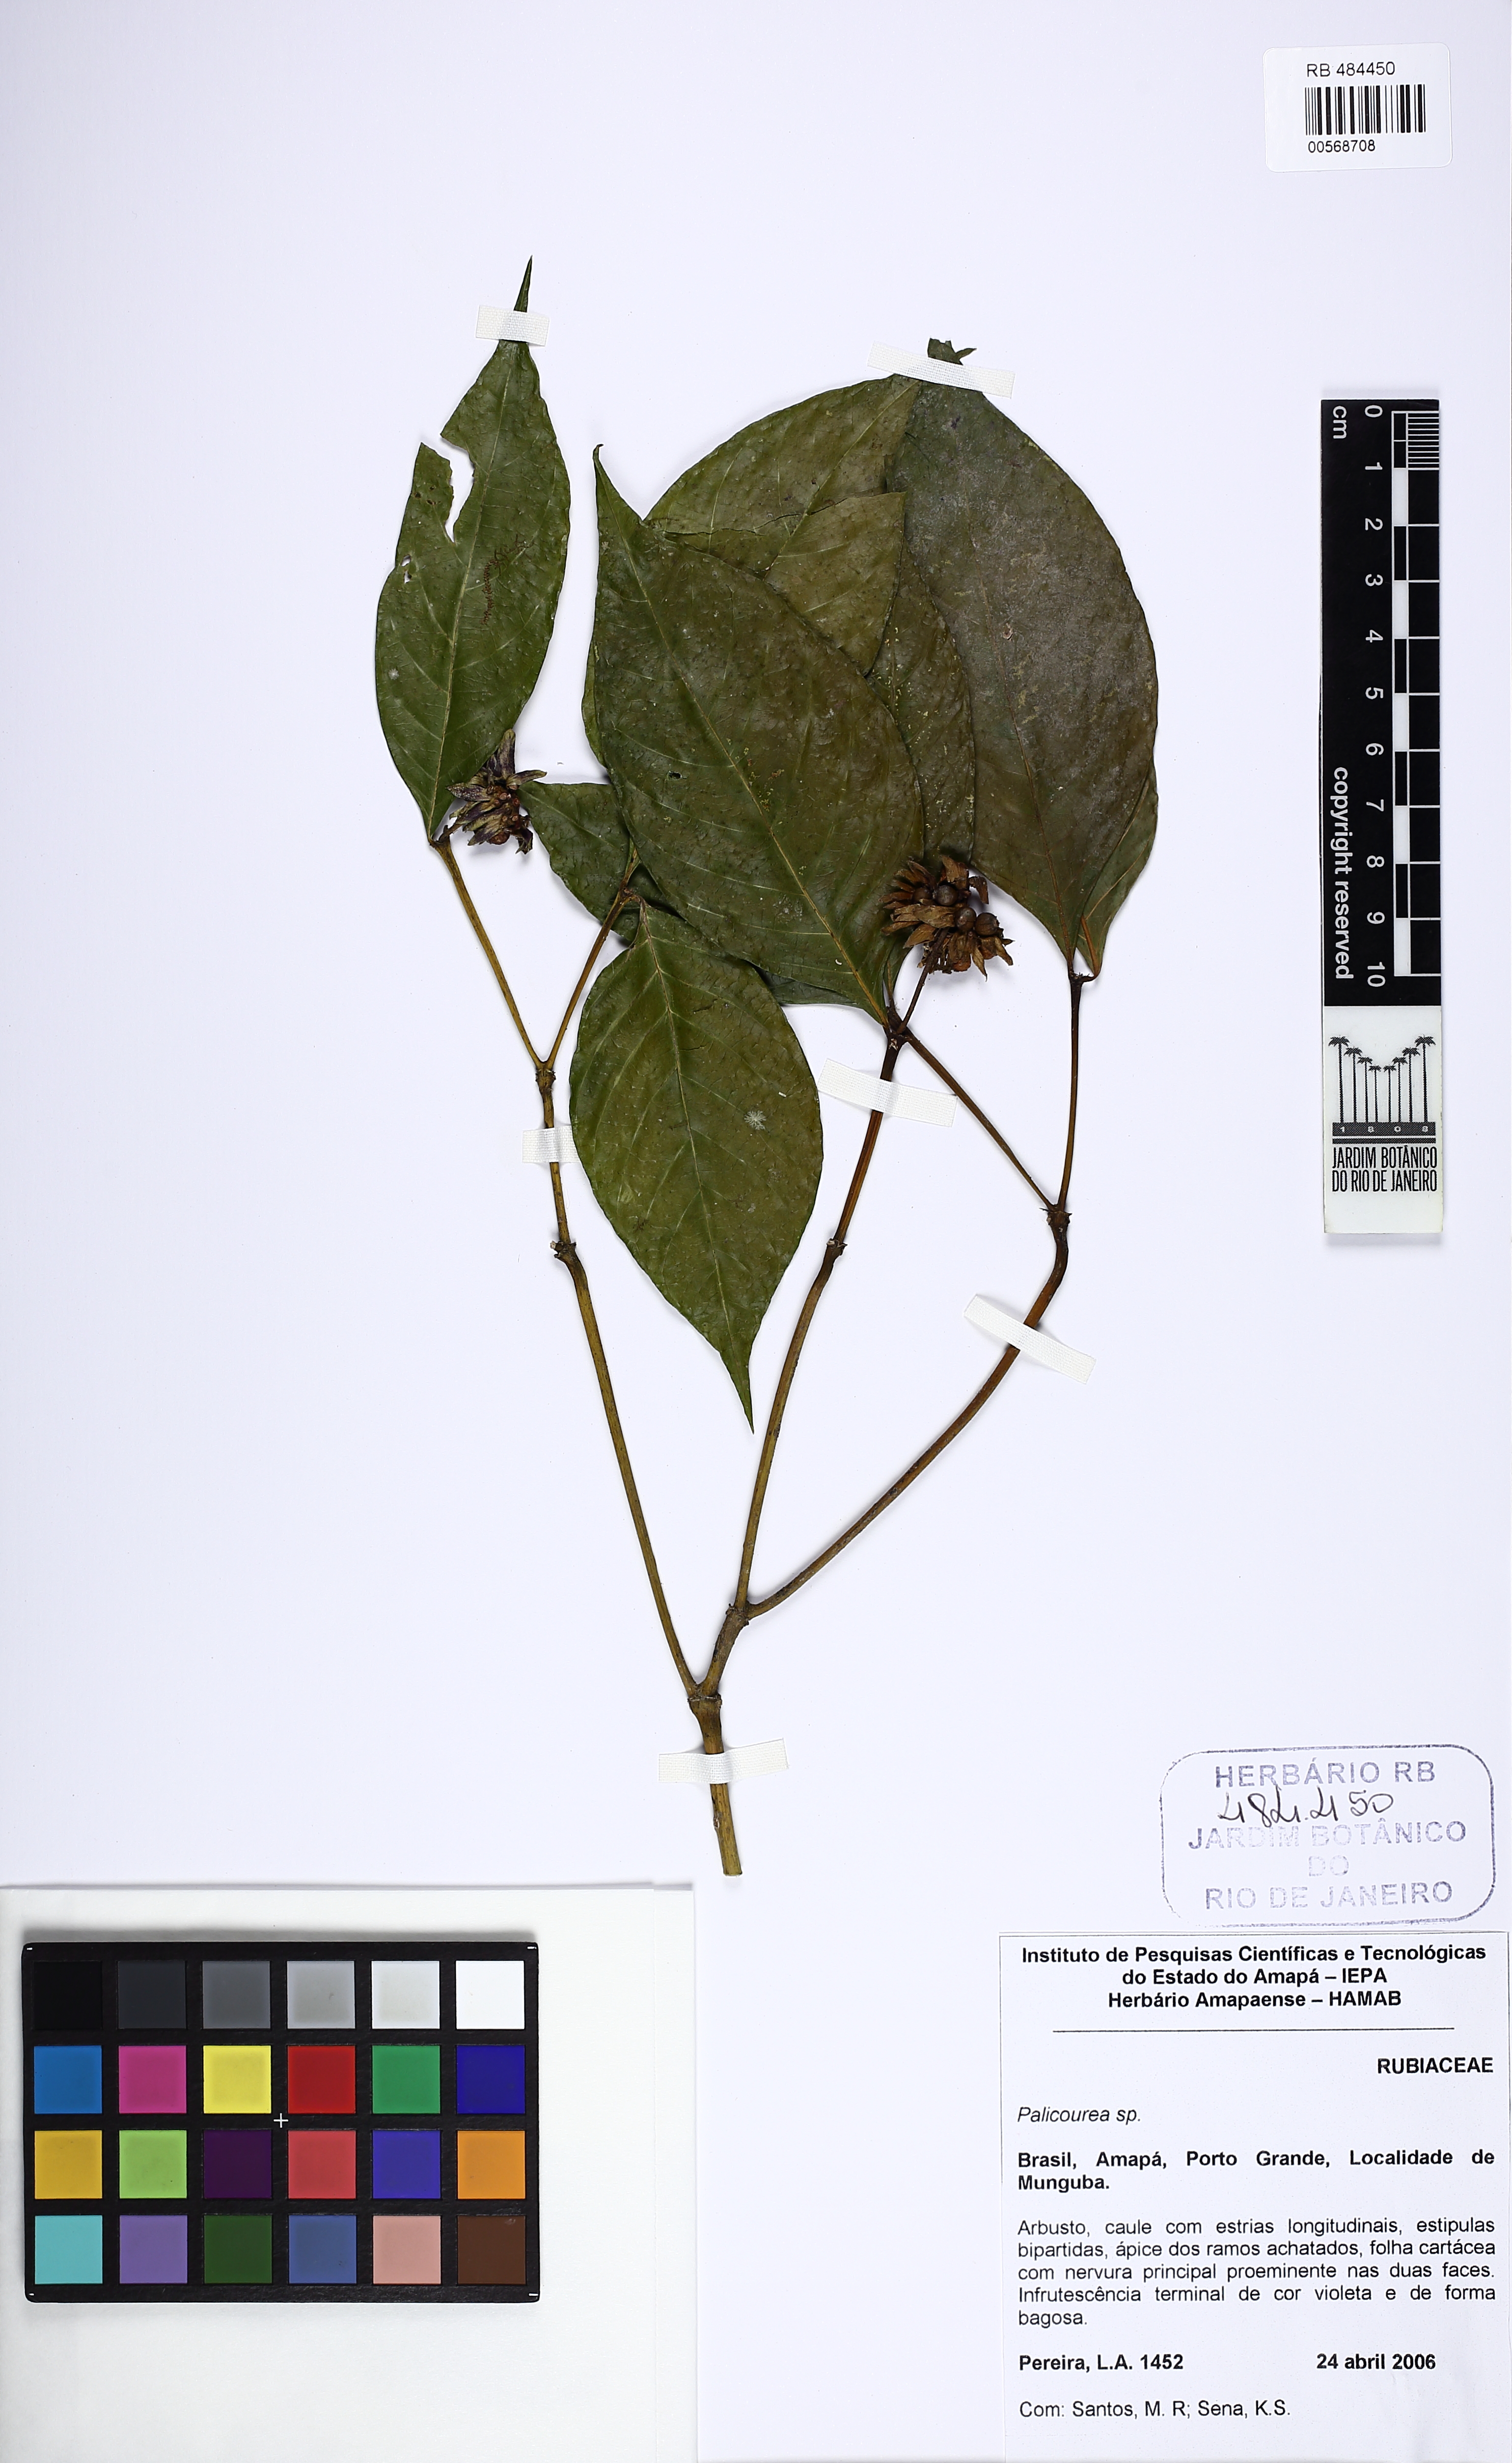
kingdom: Plantae
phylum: Tracheophyta
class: Magnoliopsida
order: Gentianales
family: Rubiaceae
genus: Palicourea
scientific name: Palicourea justiciifolia
